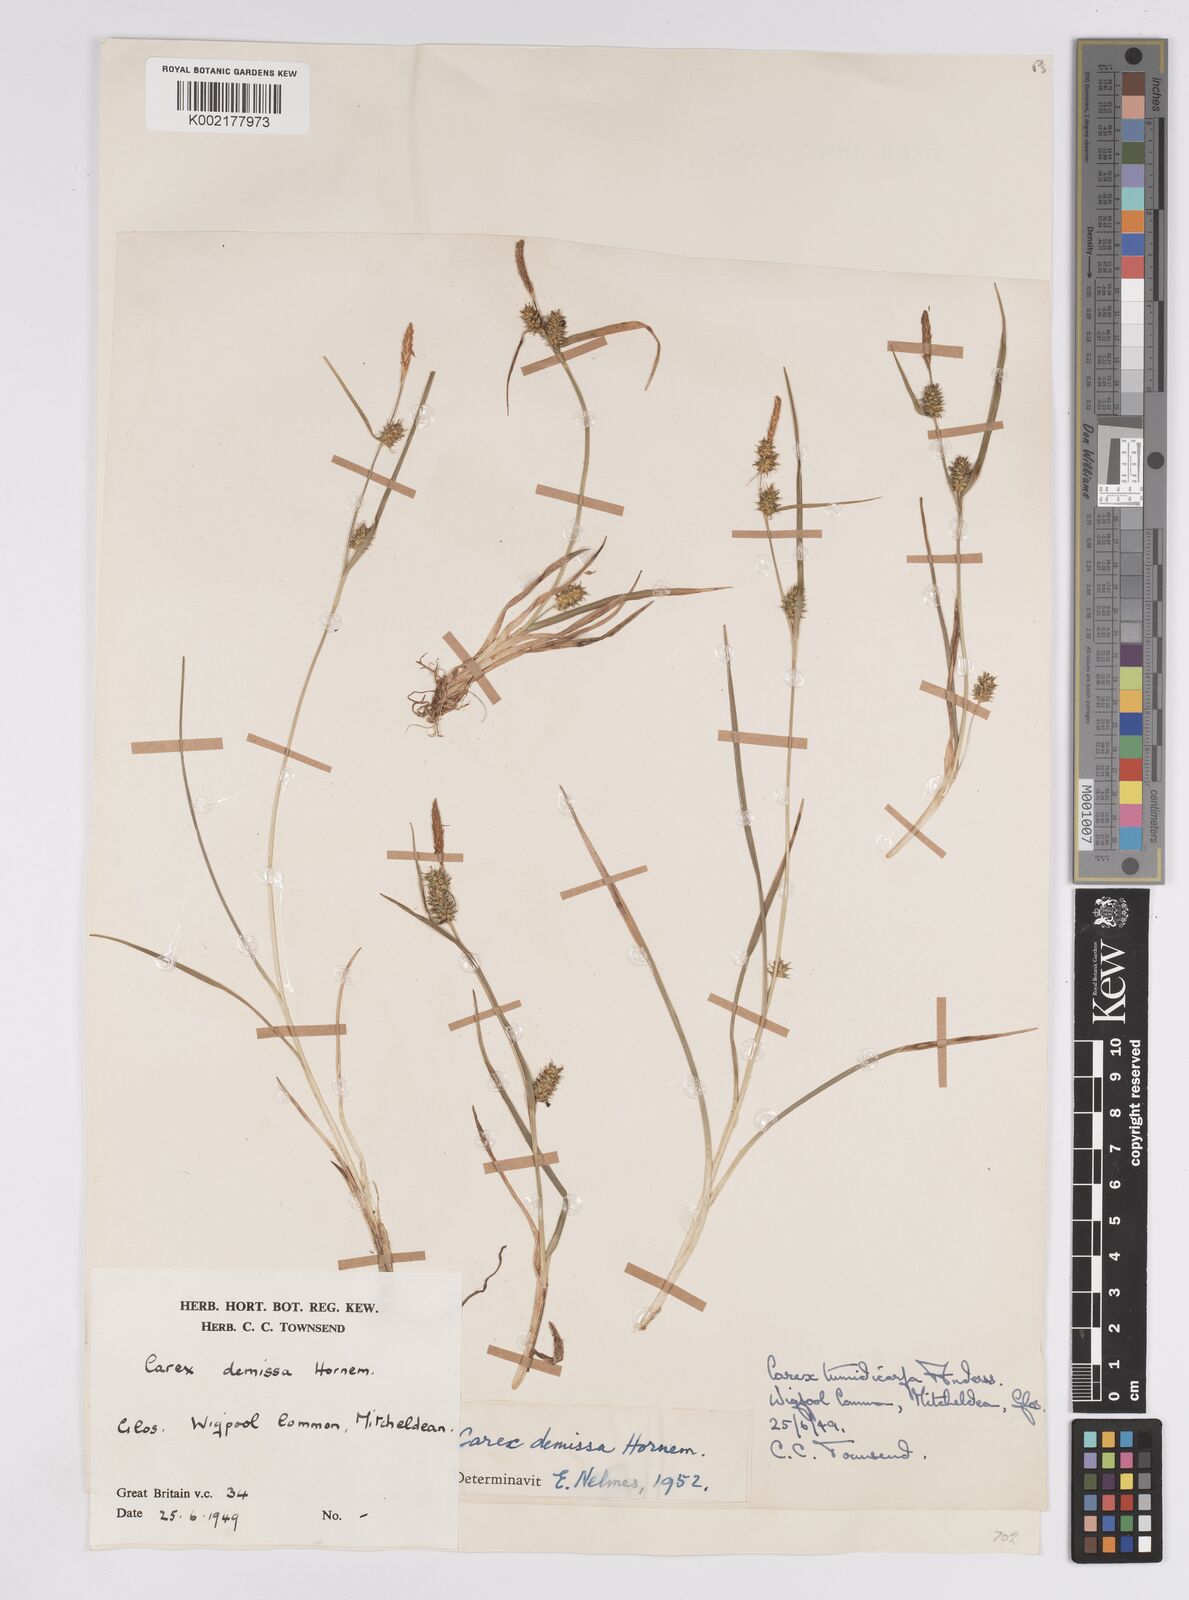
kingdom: Plantae
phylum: Tracheophyta
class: Liliopsida
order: Poales
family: Cyperaceae
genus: Carex
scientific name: Carex demissa
